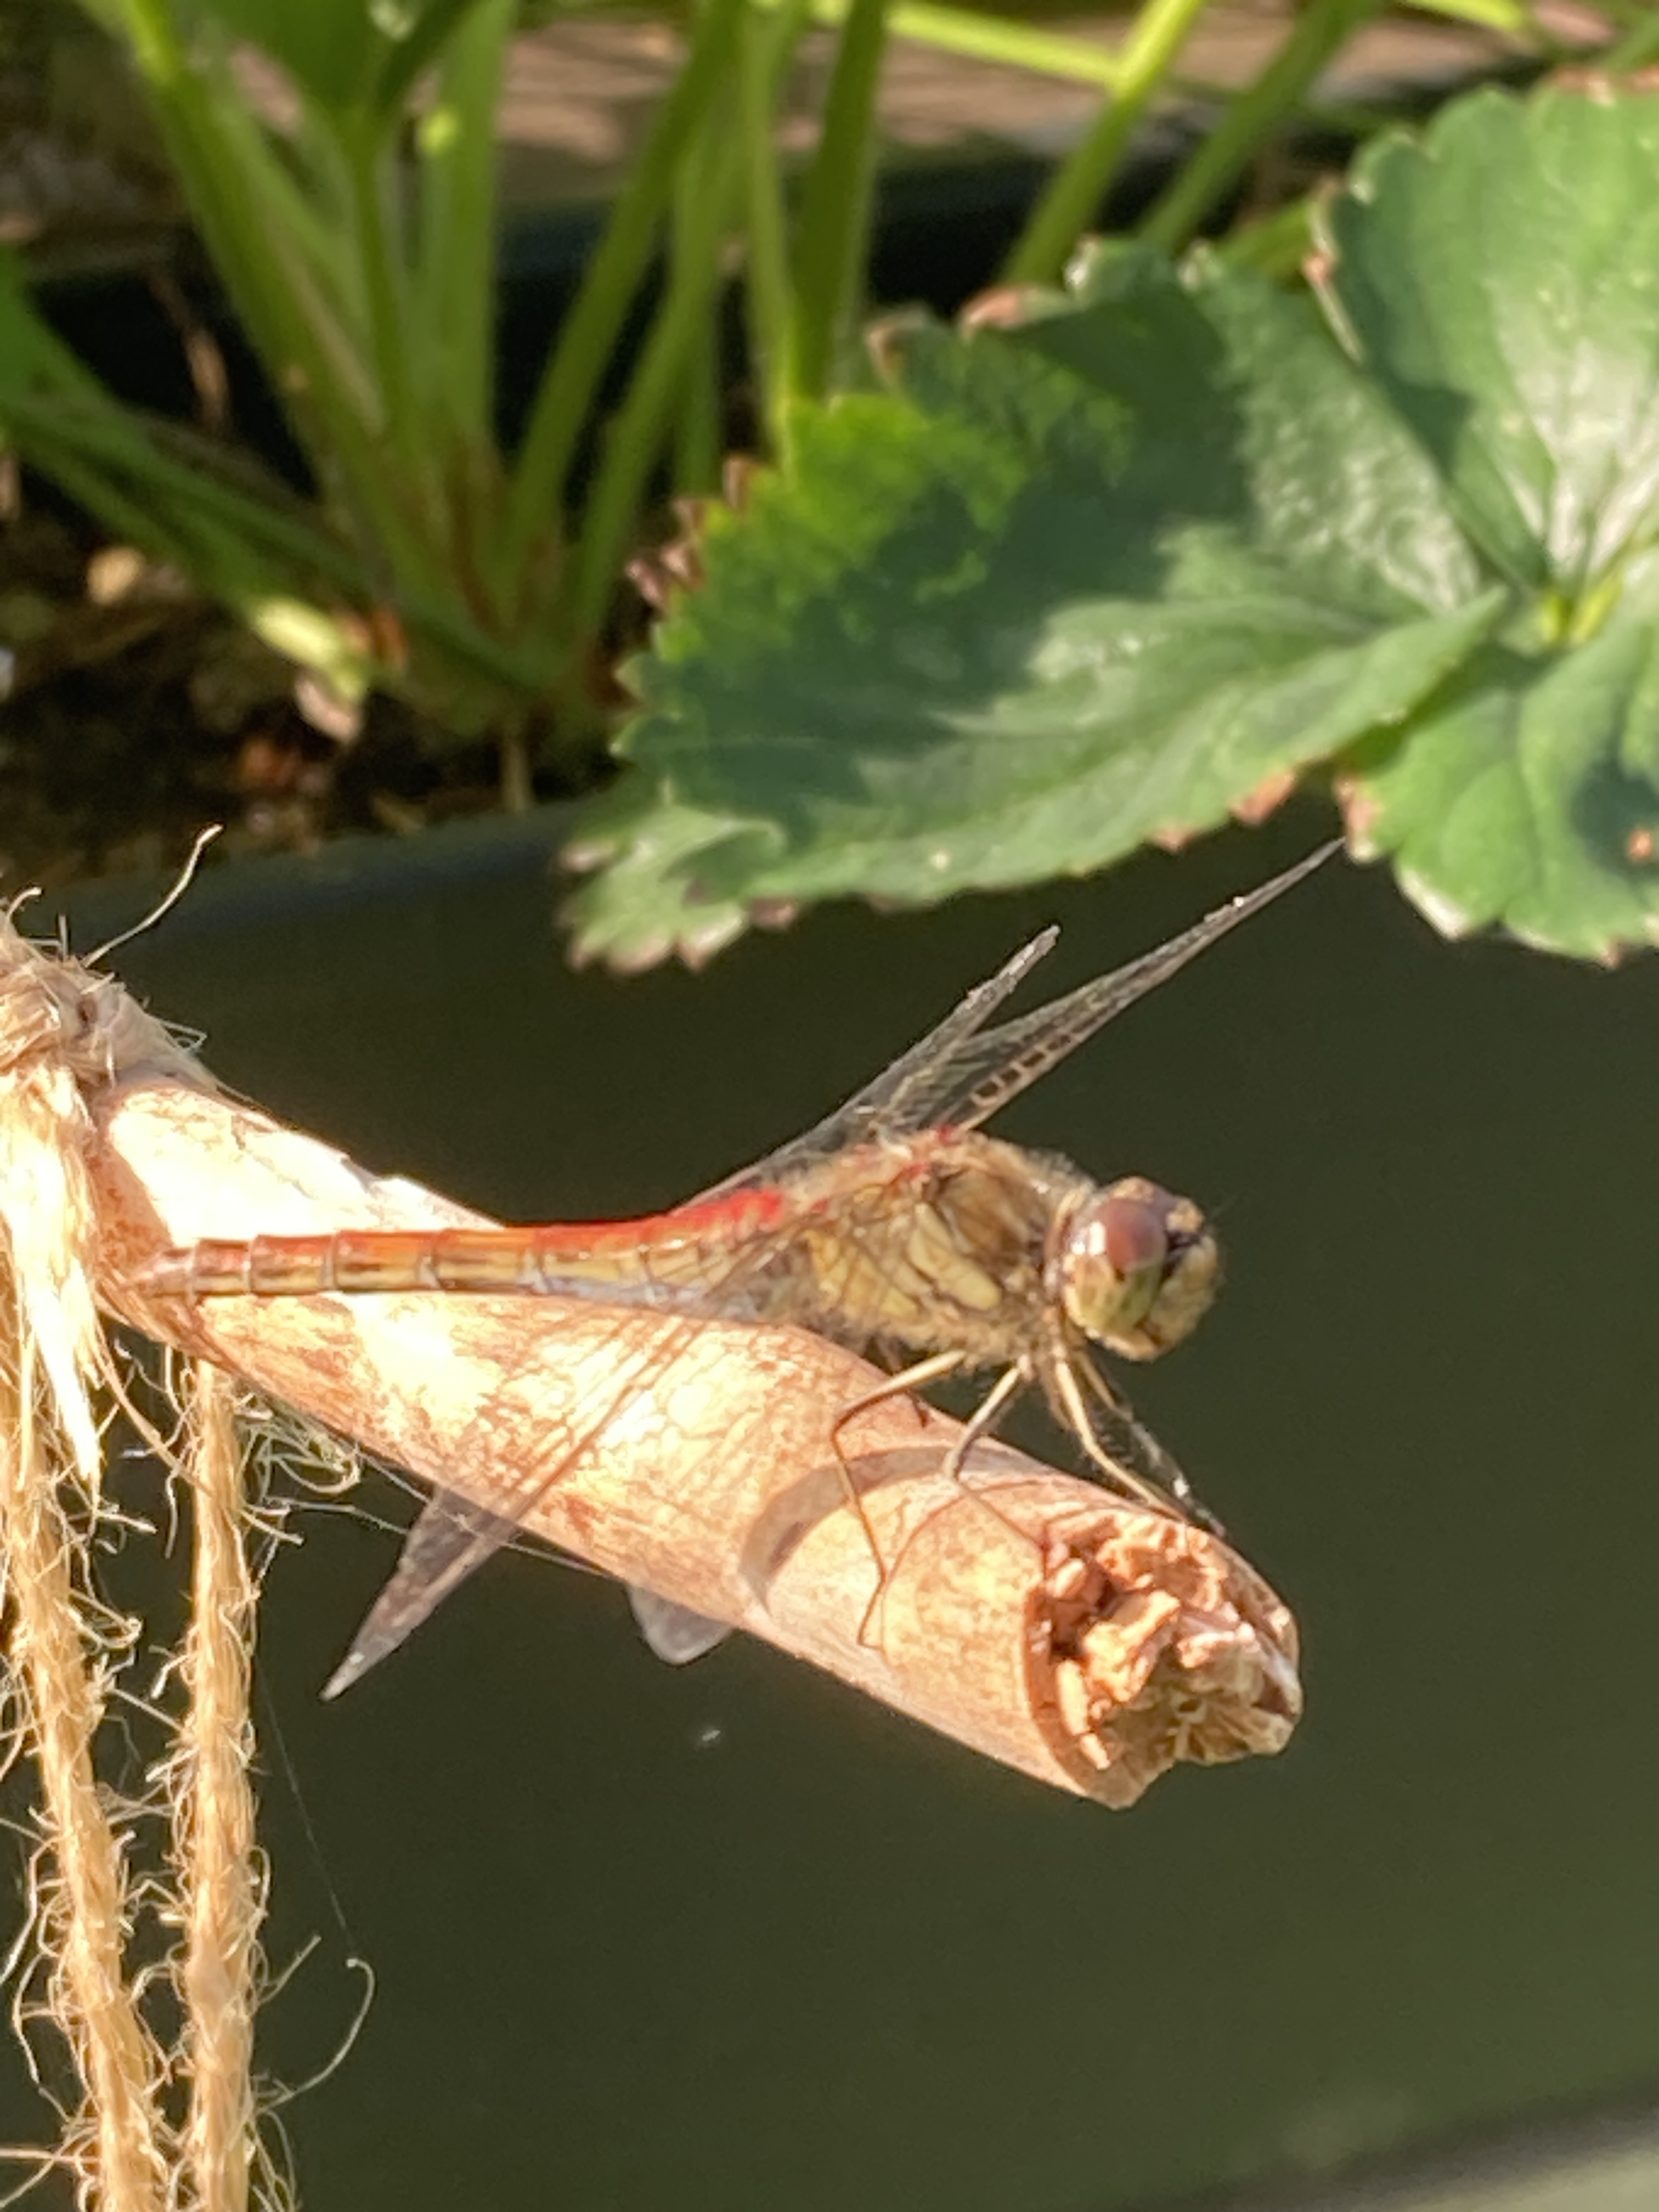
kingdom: Animalia
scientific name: Animalia
